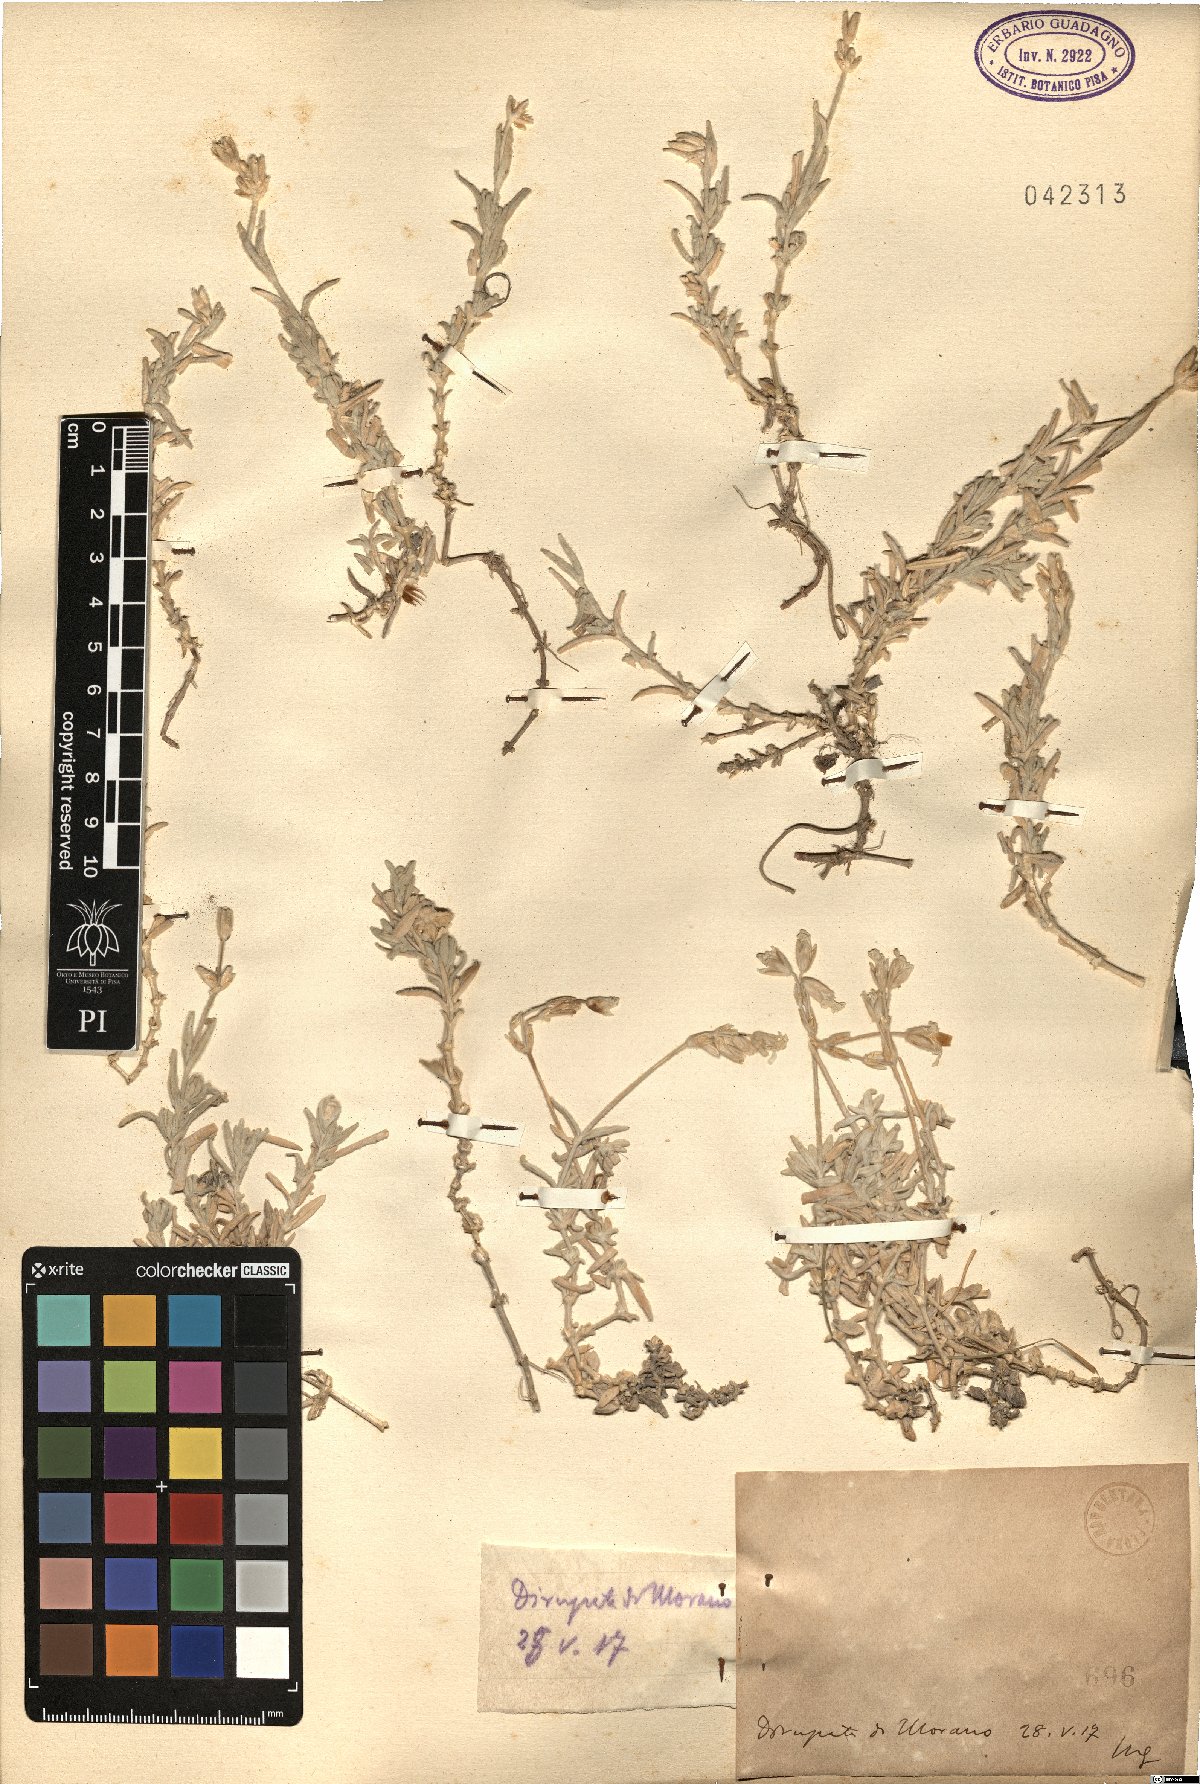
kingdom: Plantae
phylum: Tracheophyta
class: Magnoliopsida
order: Caryophyllales
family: Caryophyllaceae
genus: Cerastium
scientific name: Cerastium
